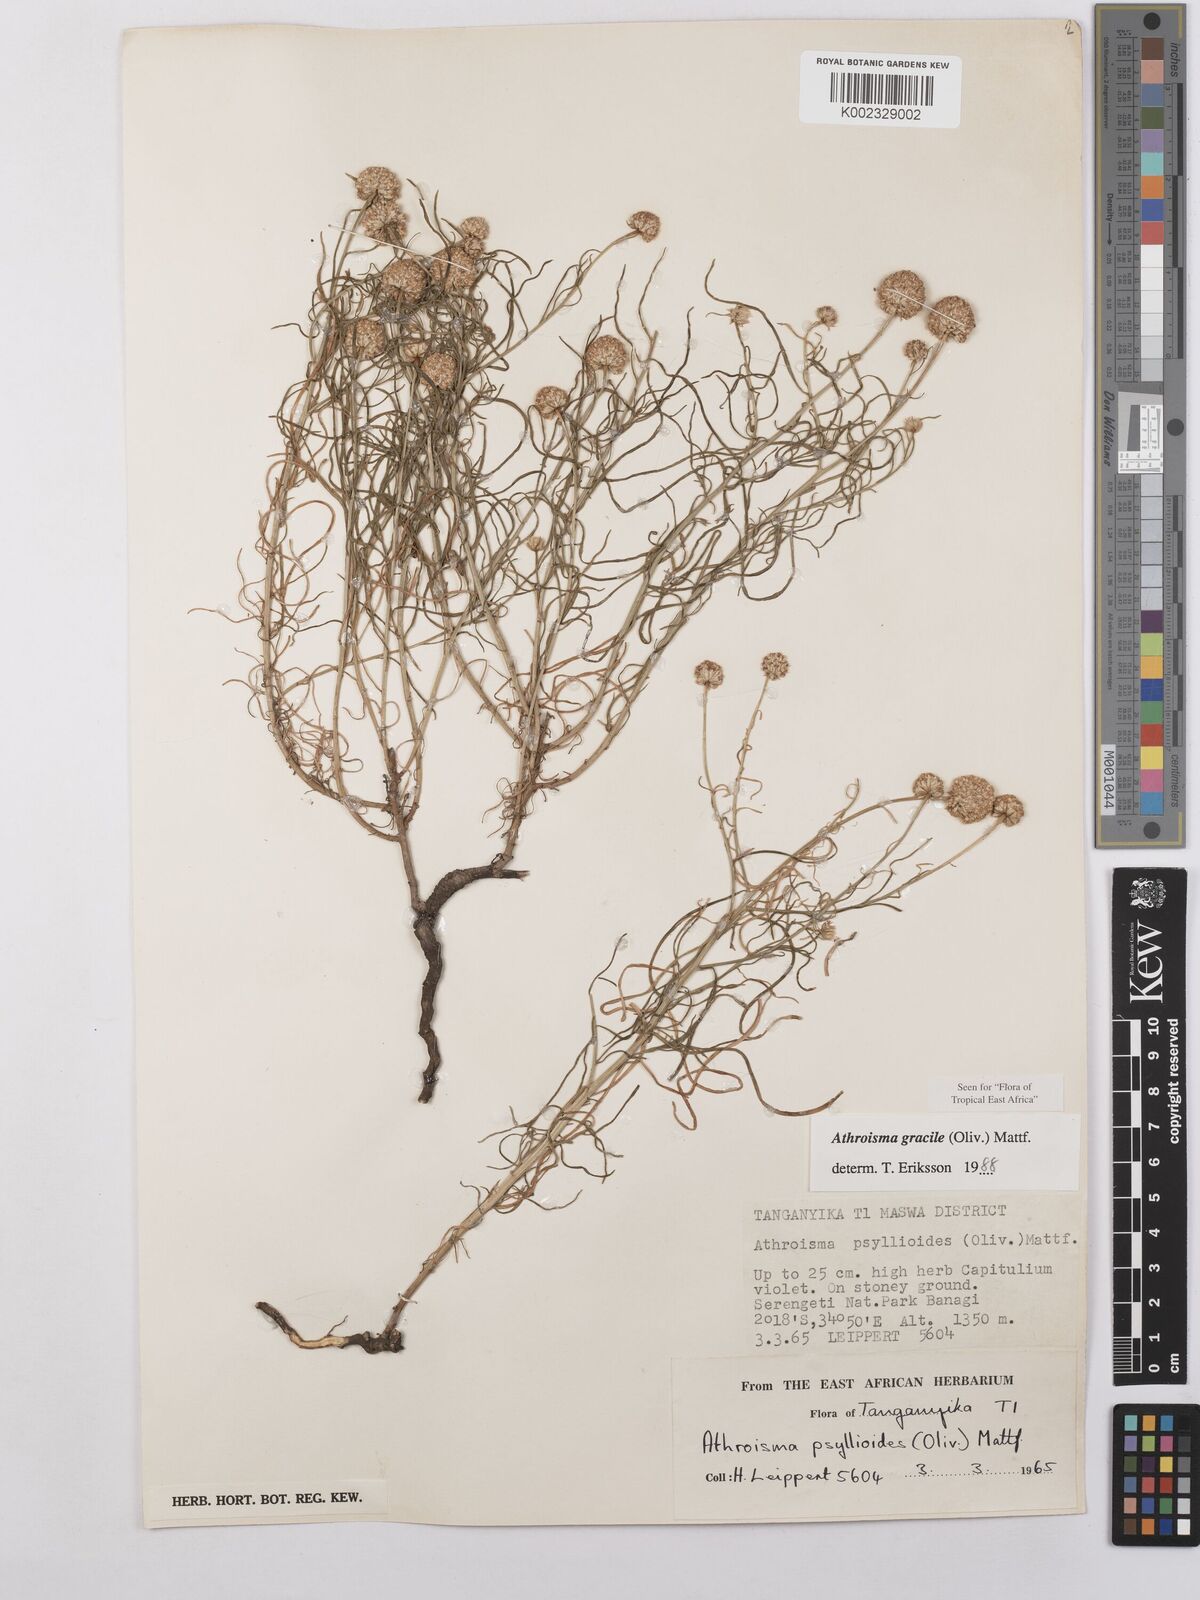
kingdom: Plantae
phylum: Tracheophyta
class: Magnoliopsida
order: Asterales
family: Asteraceae
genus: Athroisma
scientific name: Athroisma gracile
